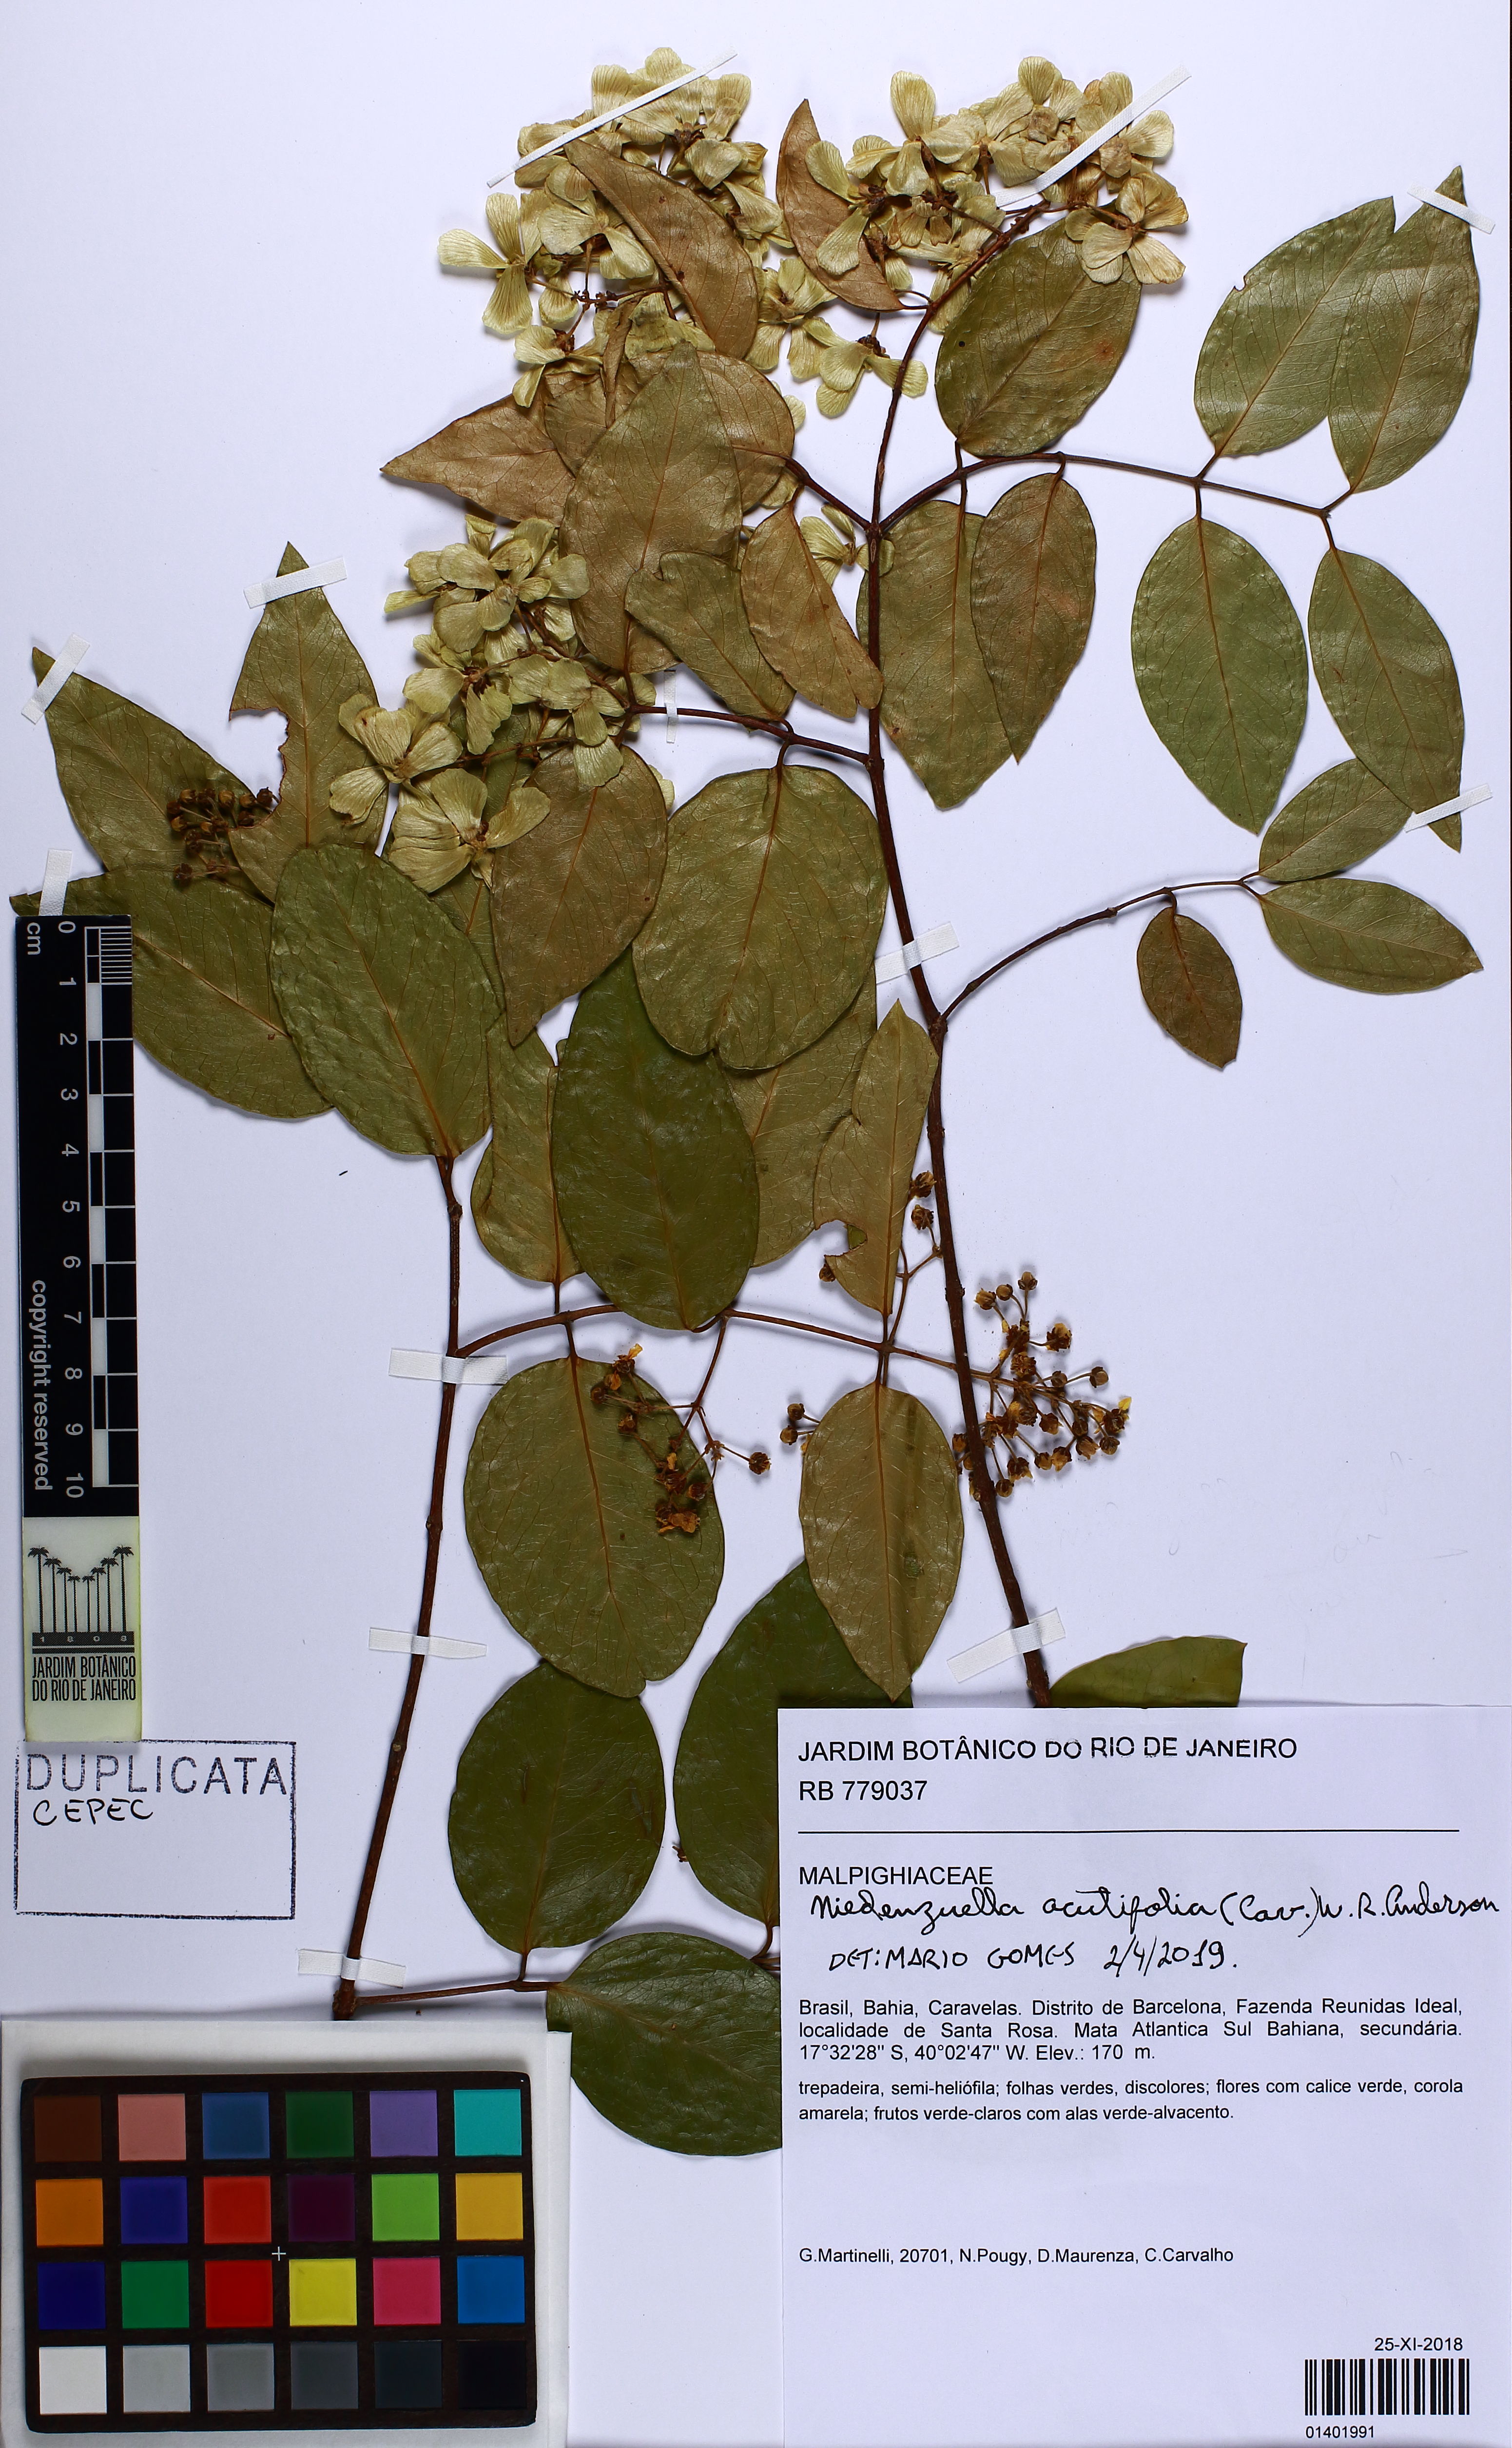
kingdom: Plantae
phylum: Tracheophyta
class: Magnoliopsida
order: Malpighiales
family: Malpighiaceae
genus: Niedenzuella
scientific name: Niedenzuella acutifolia
